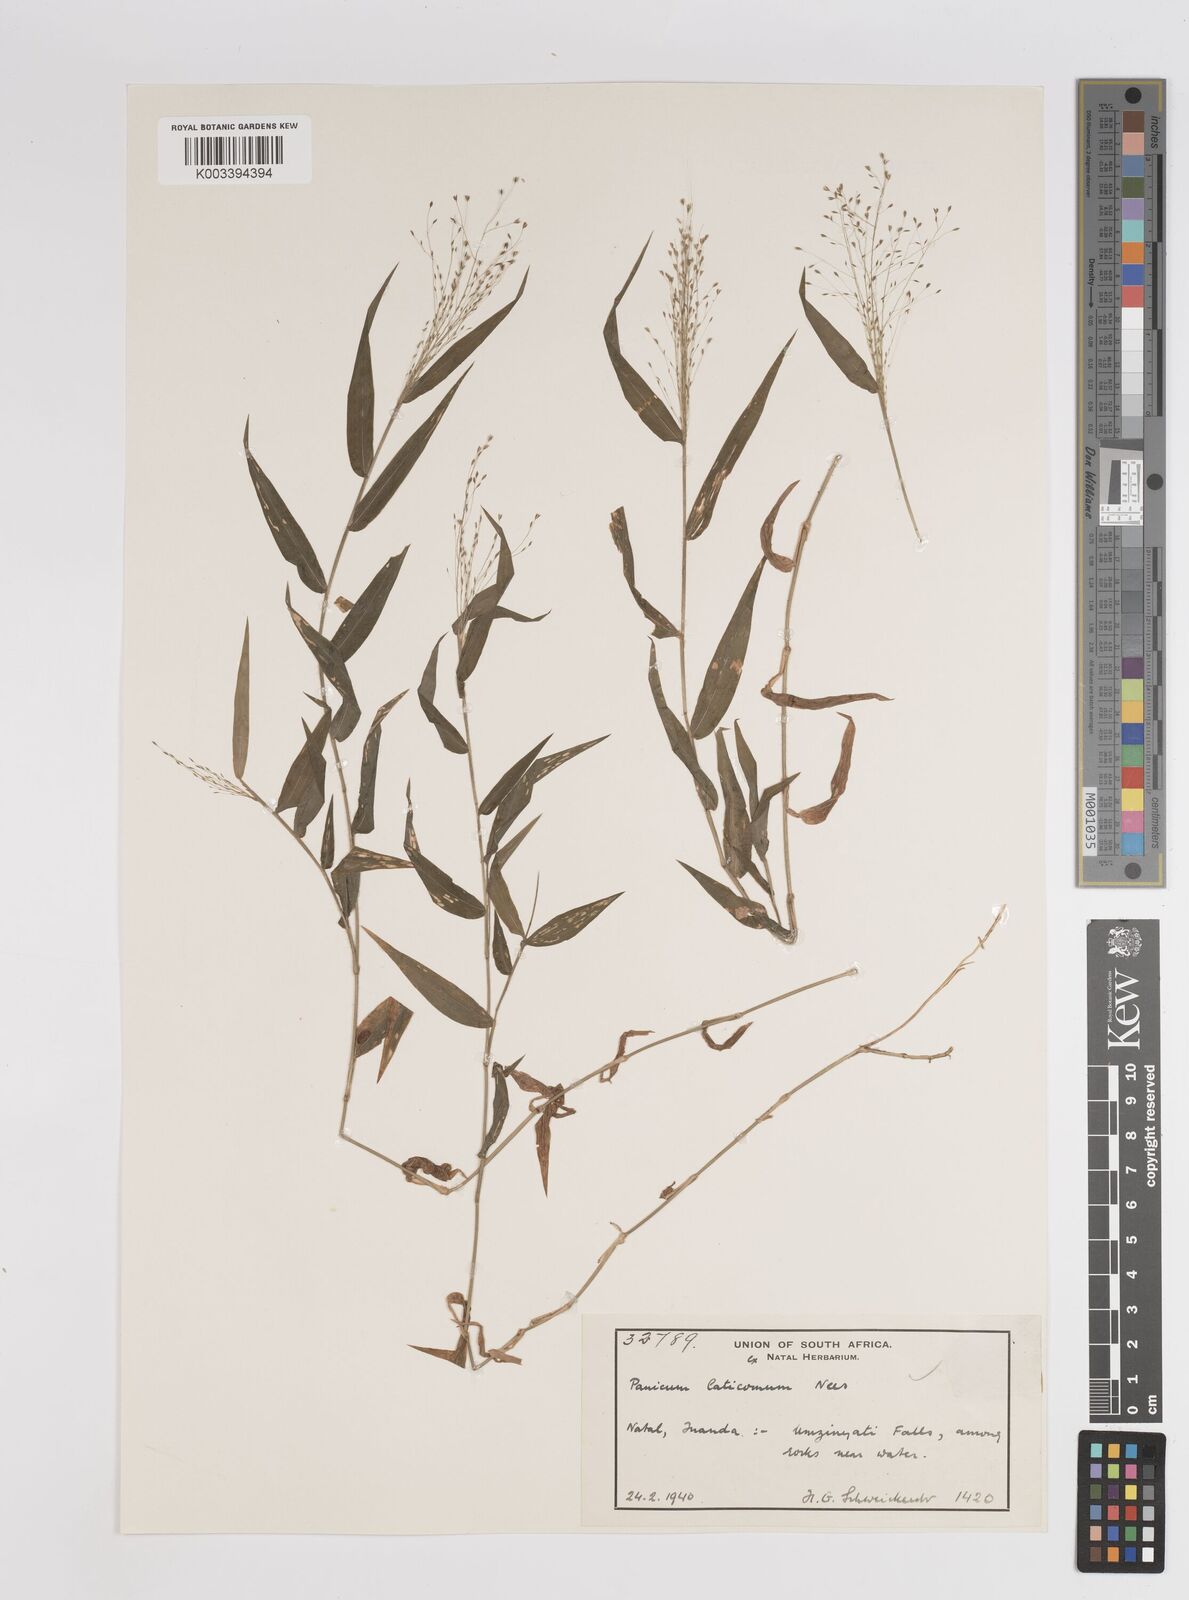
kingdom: Plantae
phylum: Tracheophyta
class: Liliopsida
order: Poales
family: Poaceae
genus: Panicum
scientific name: Panicum laticomum
